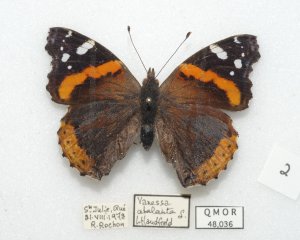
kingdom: Animalia
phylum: Arthropoda
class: Insecta
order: Lepidoptera
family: Nymphalidae
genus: Vanessa
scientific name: Vanessa atalanta
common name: Red Admiral
